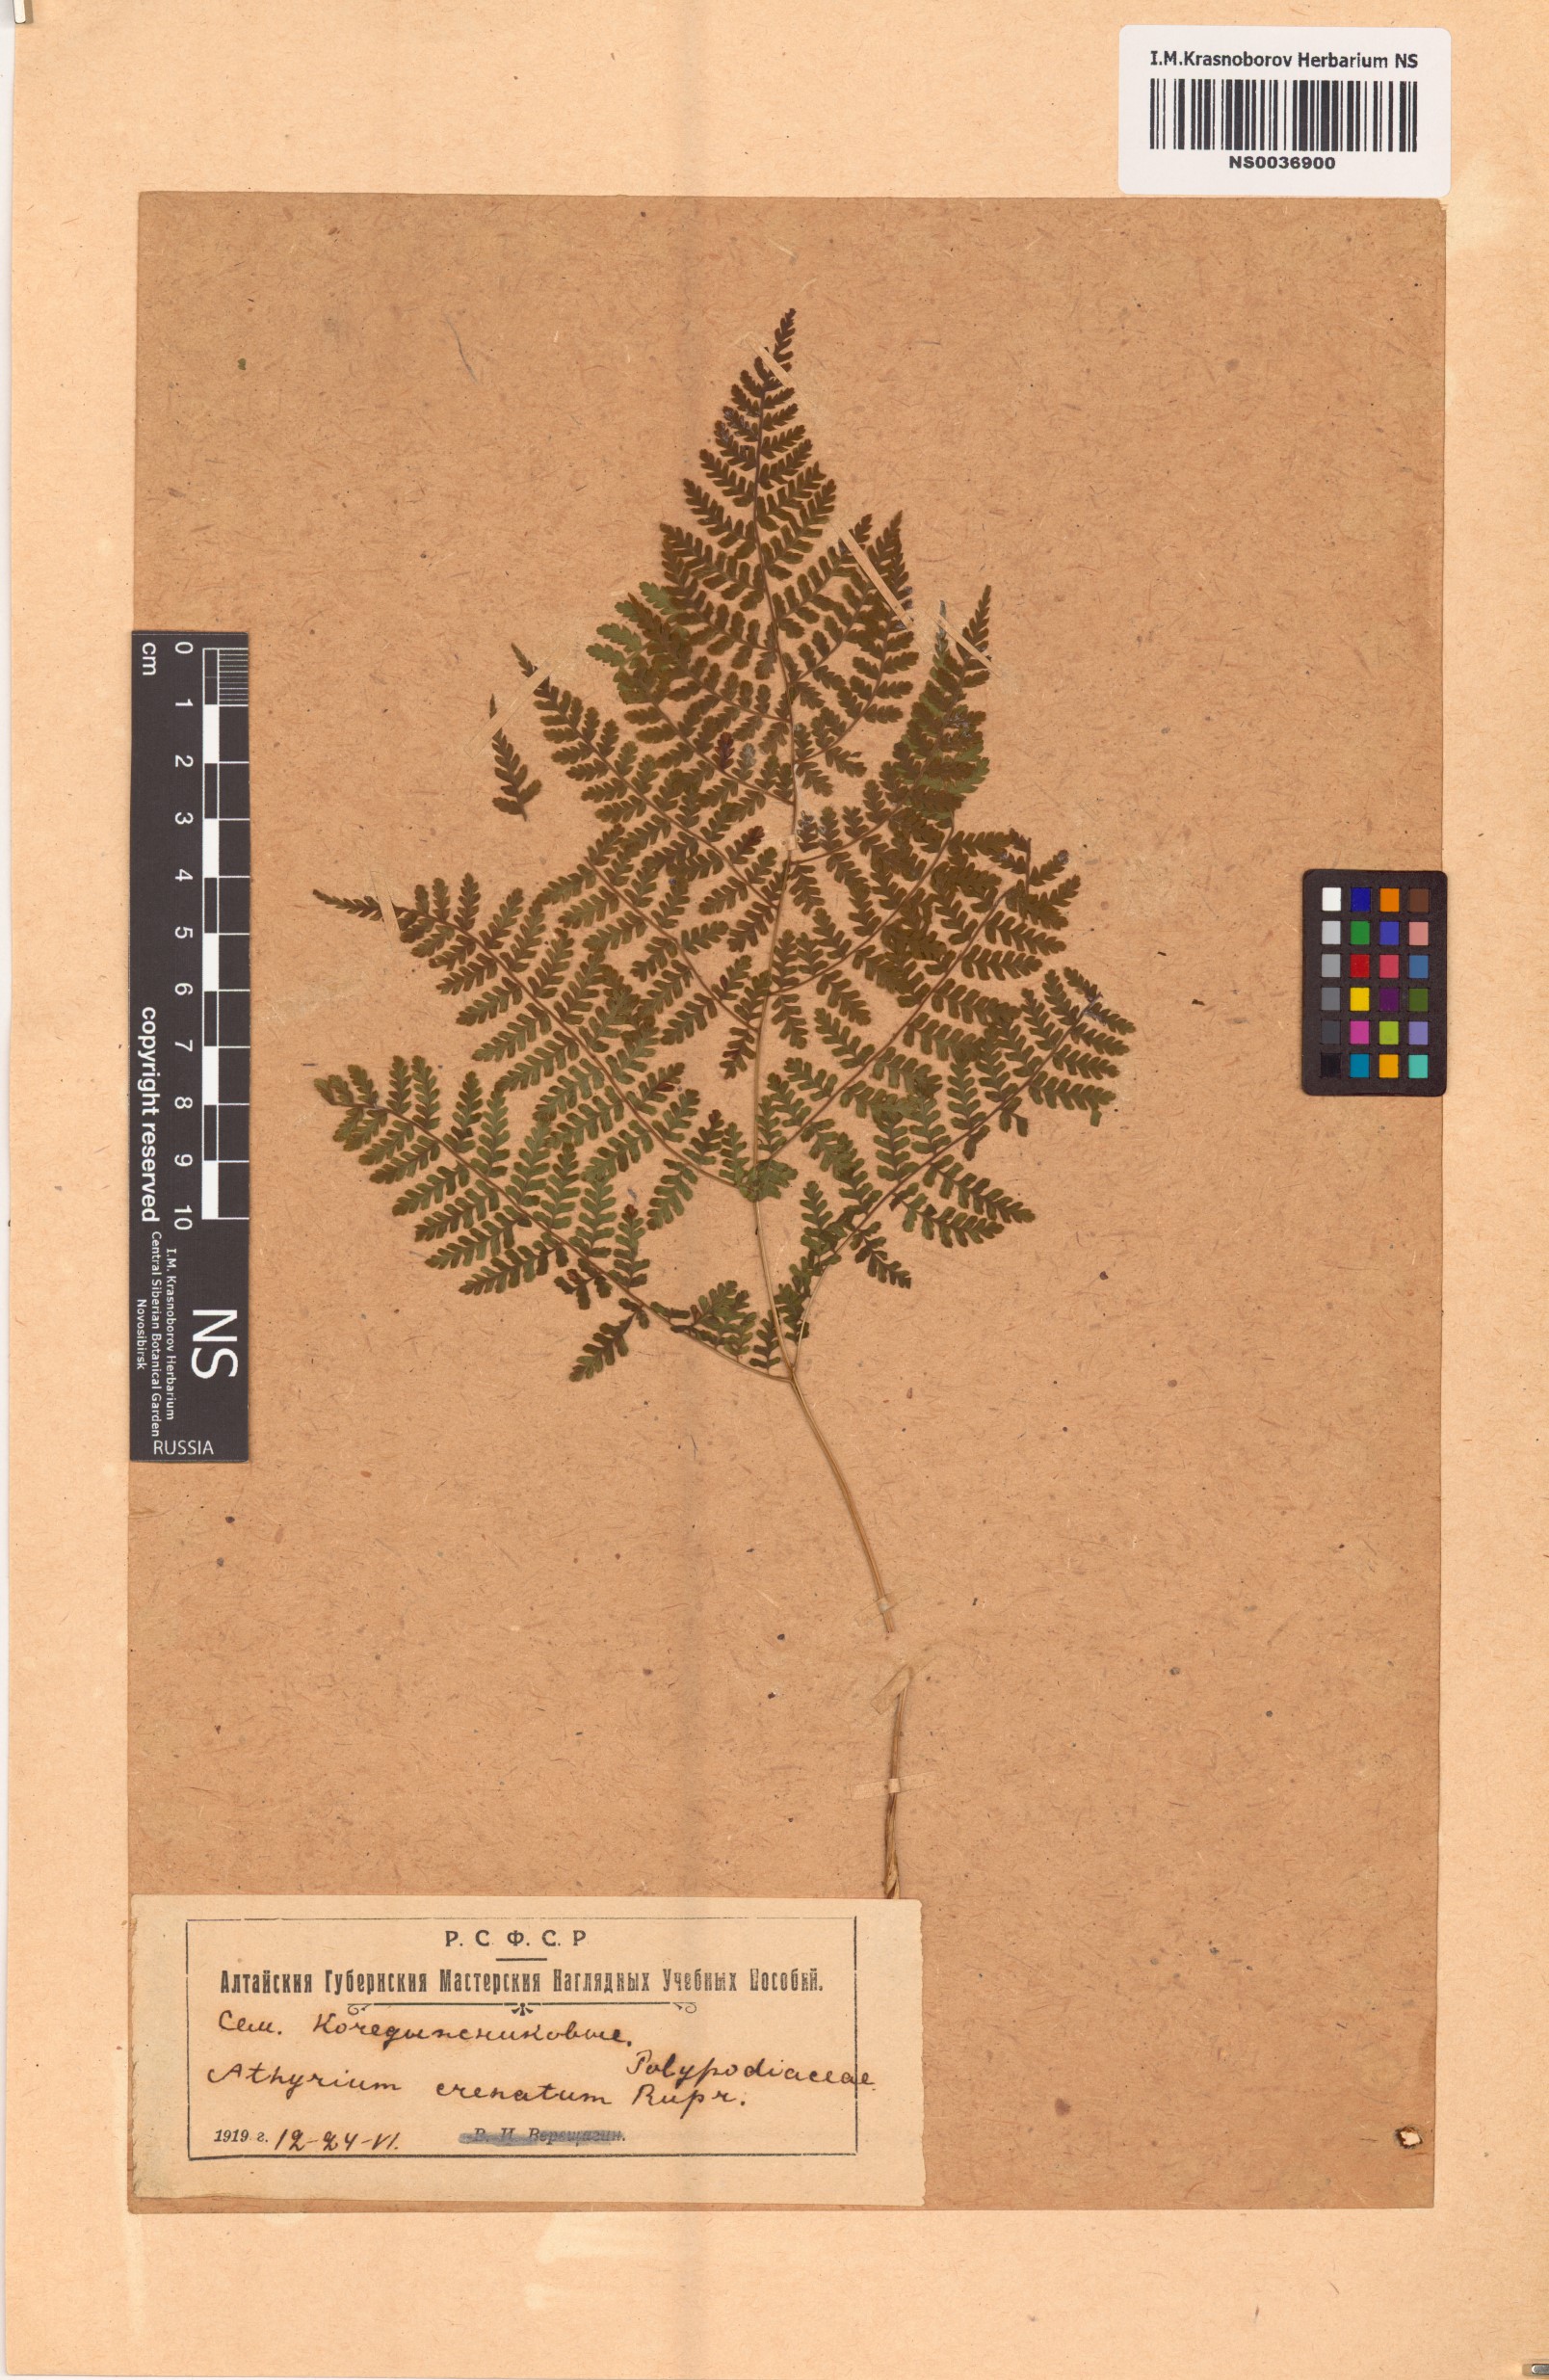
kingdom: Plantae
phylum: Tracheophyta
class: Polypodiopsida
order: Polypodiales
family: Athyriaceae
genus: Diplazium
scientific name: Diplazium sibiricum
